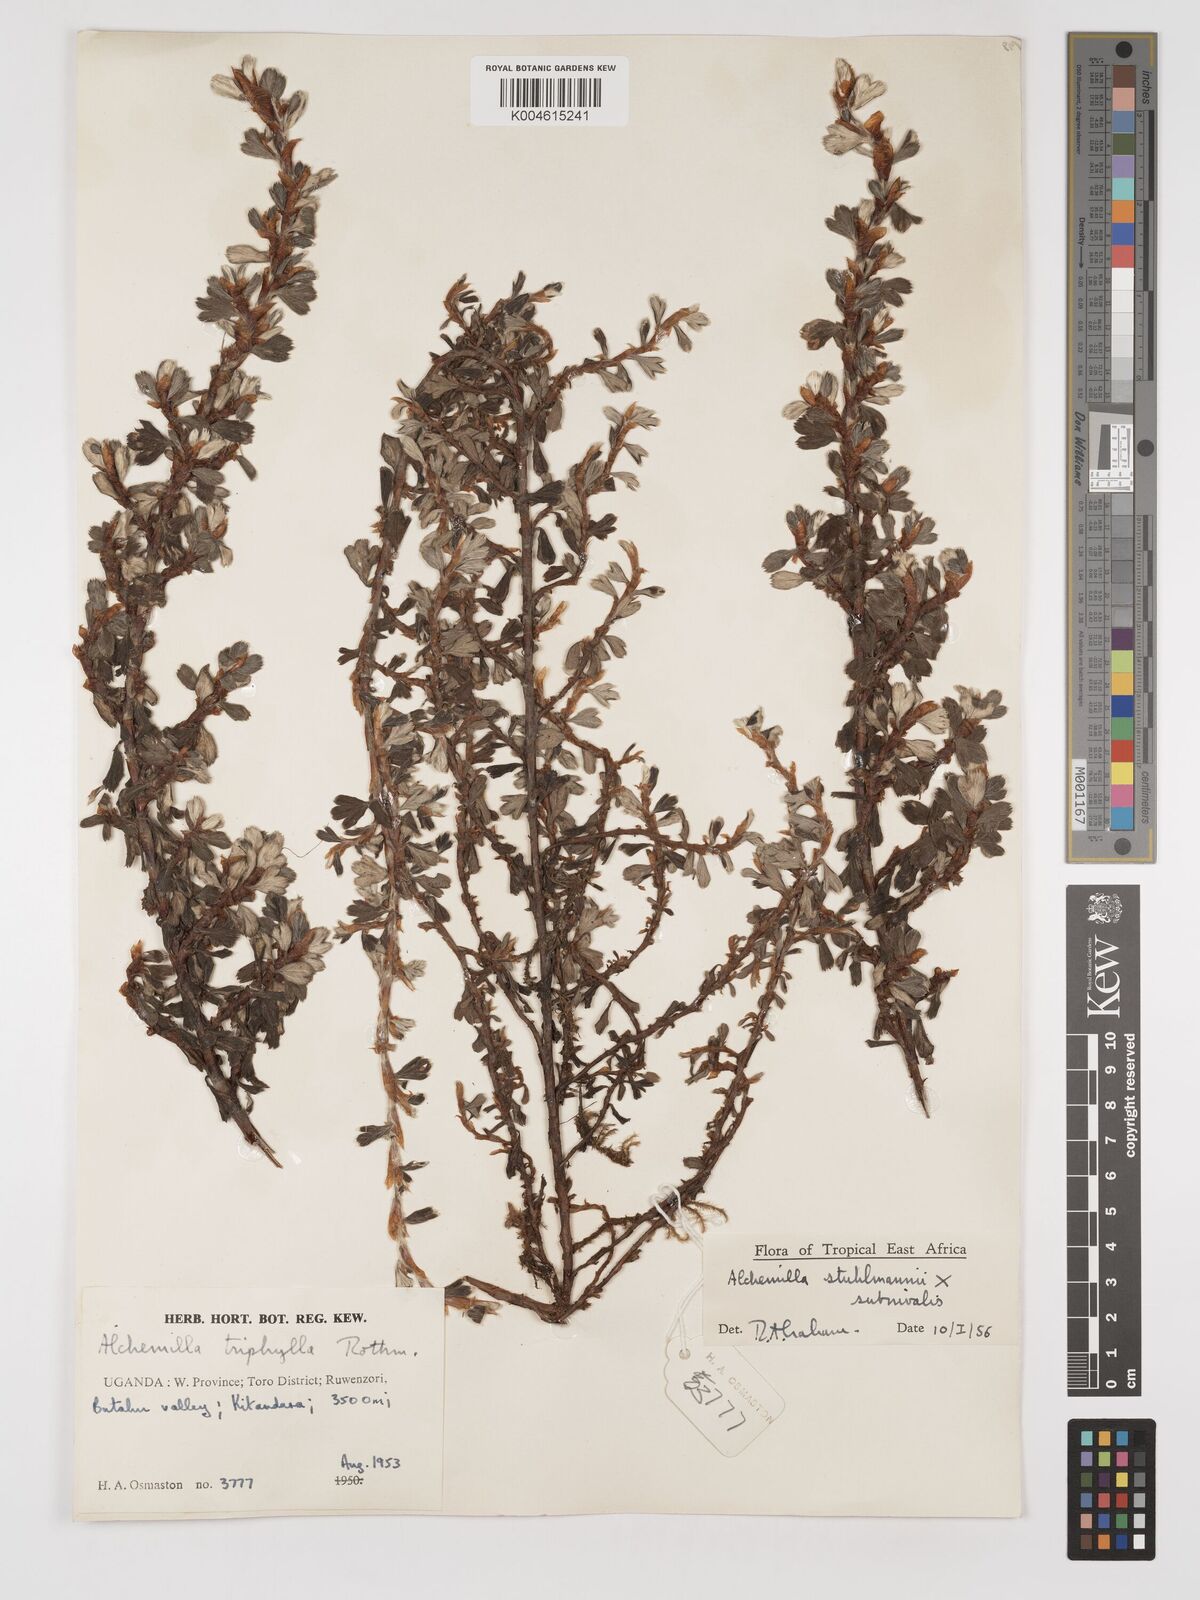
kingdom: Plantae
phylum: Tracheophyta
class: Magnoliopsida
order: Rosales
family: Rosaceae
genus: Alchemilla
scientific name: Alchemilla stuhlmannii
